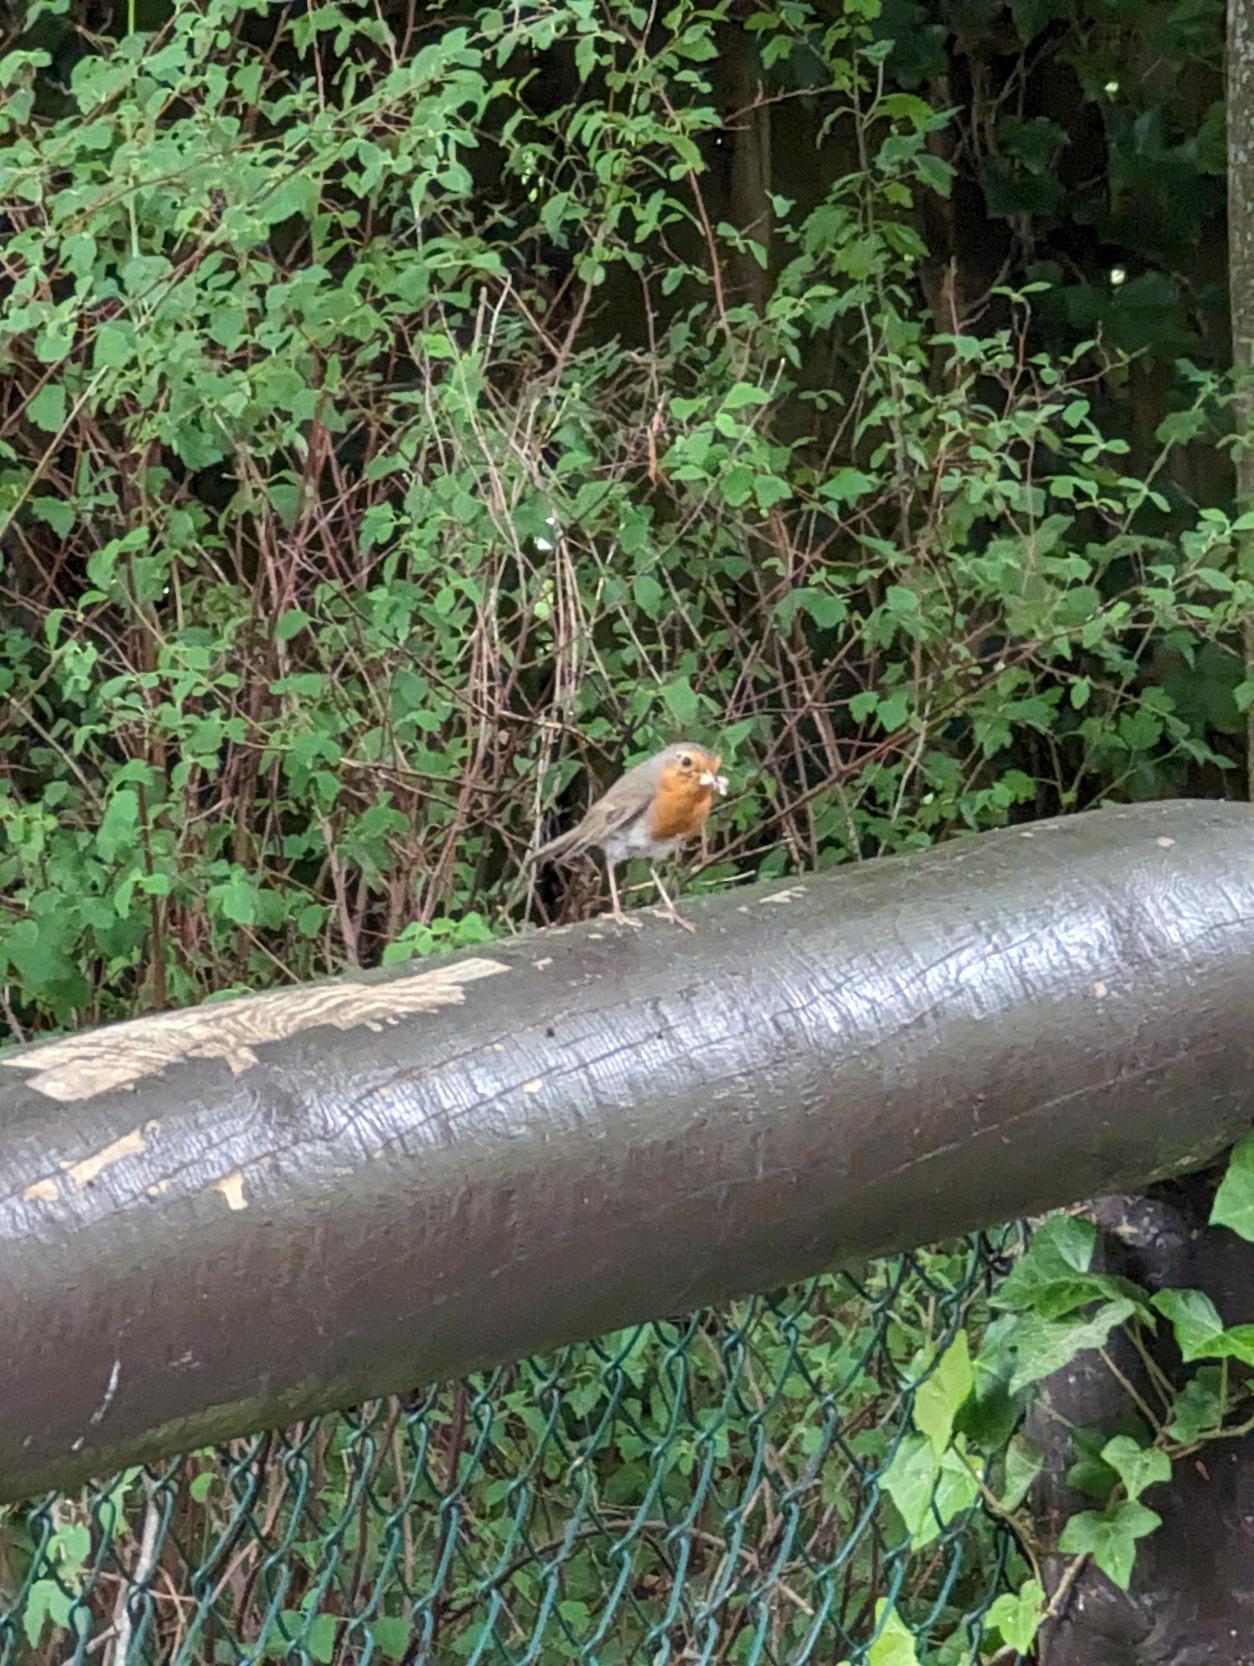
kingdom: Animalia
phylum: Chordata
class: Aves
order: Passeriformes
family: Muscicapidae
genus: Erithacus
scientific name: Erithacus rubecula
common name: Rødhals/rødkælk
